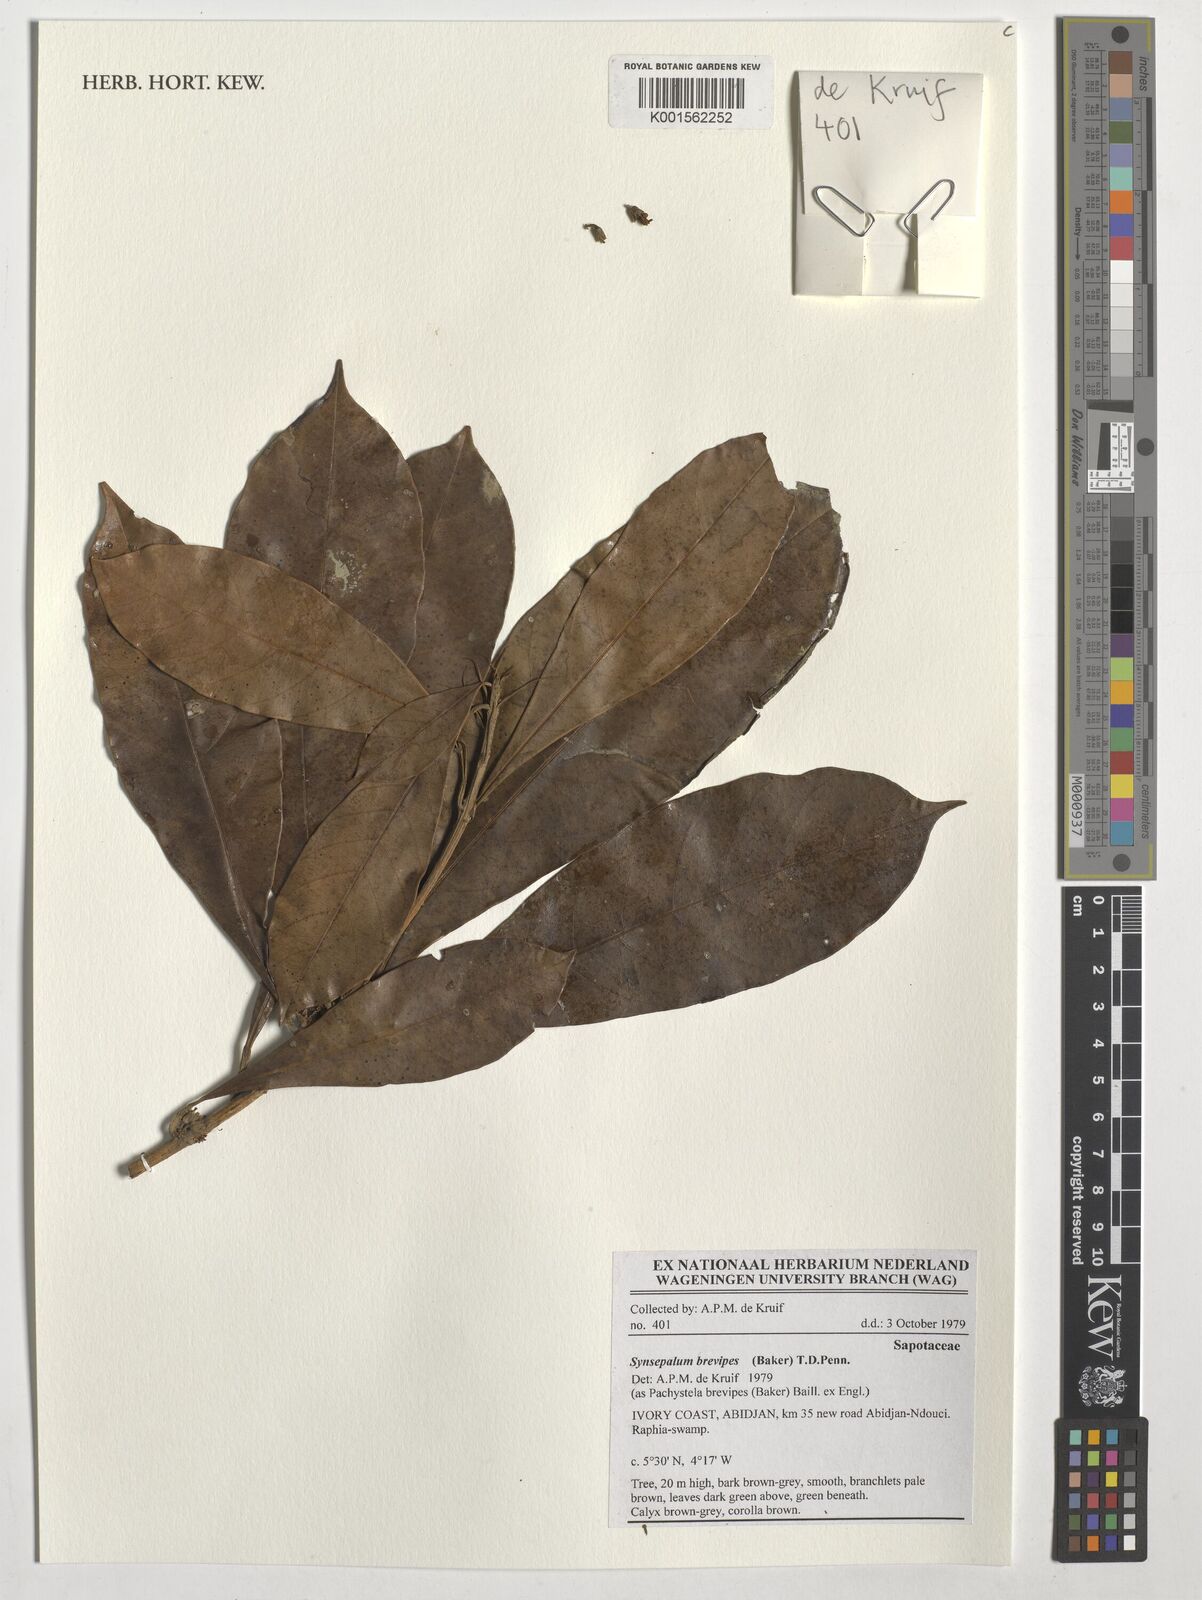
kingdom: Plantae
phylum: Tracheophyta
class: Magnoliopsida
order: Ericales
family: Sapotaceae
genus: Synsepalum
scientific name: Synsepalum brevipes
